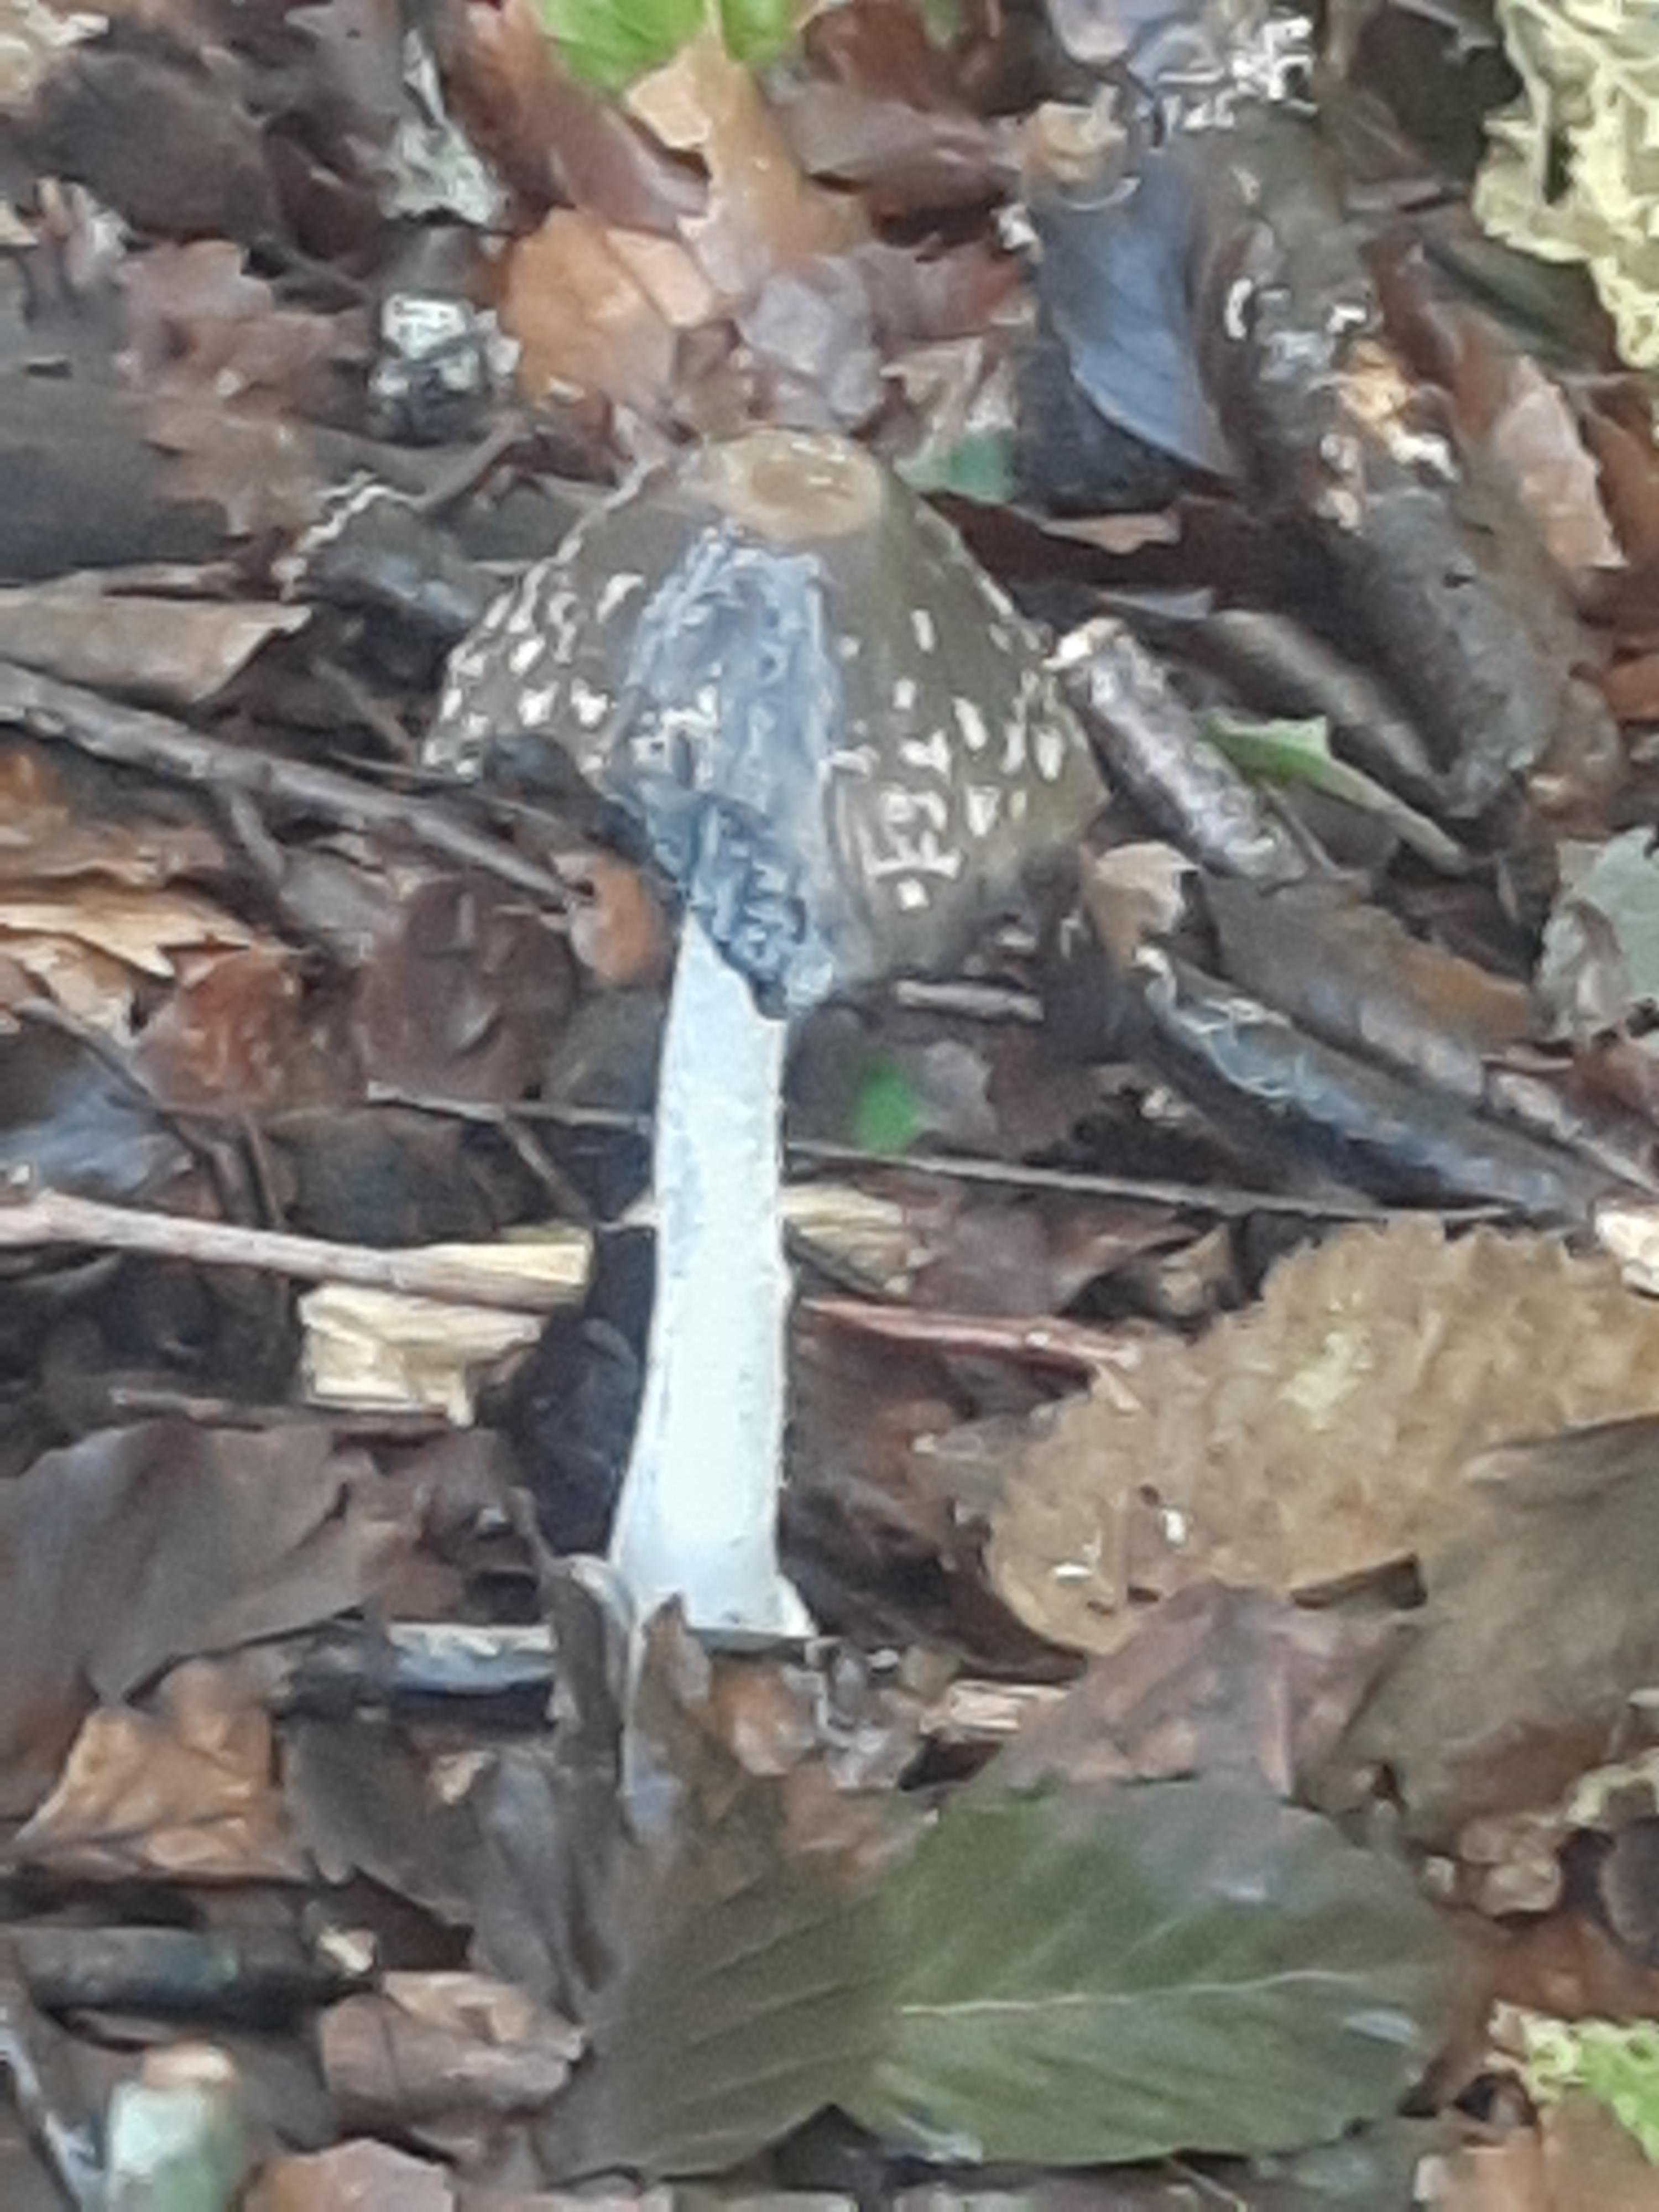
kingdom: Fungi
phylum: Basidiomycota
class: Agaricomycetes
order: Agaricales
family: Psathyrellaceae
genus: Coprinopsis
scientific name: Coprinopsis picacea
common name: skade-blækhat
